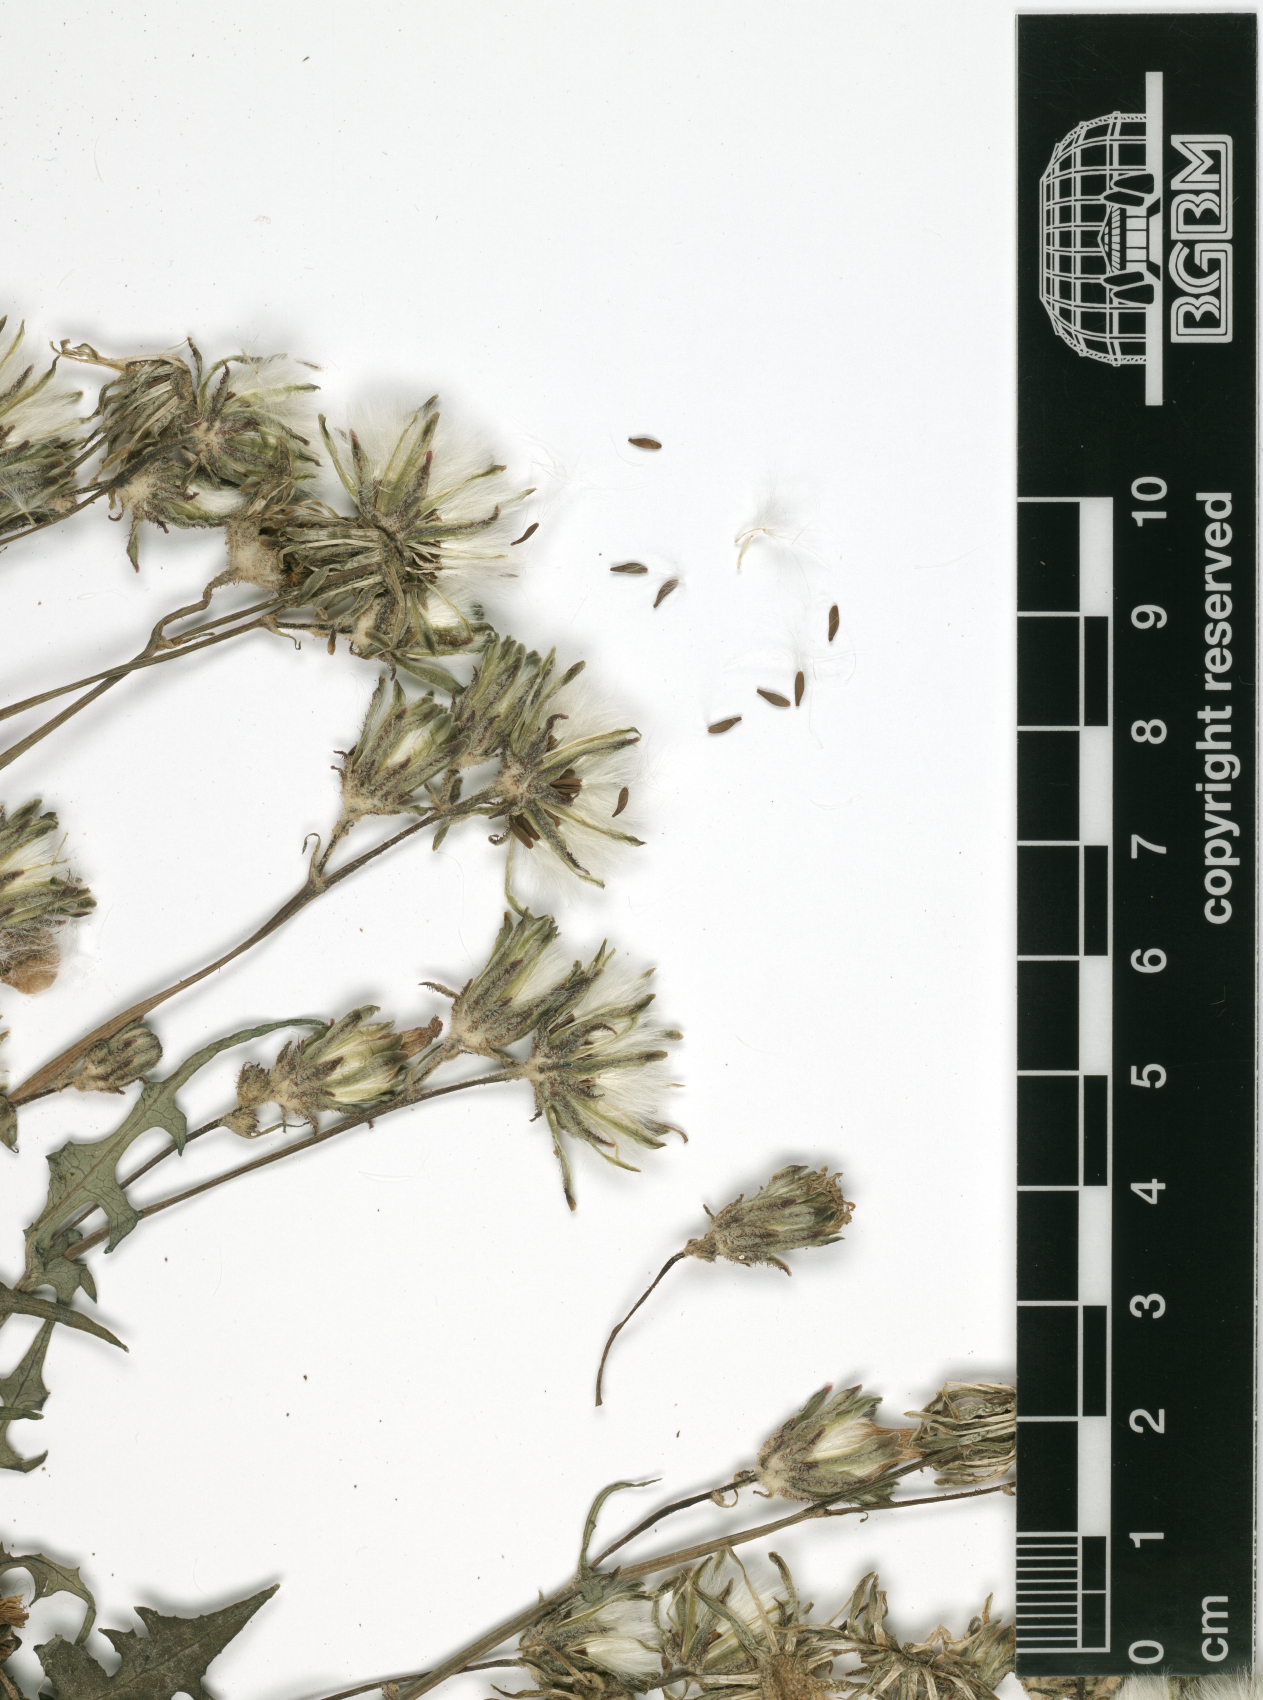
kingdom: Plantae
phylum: Tracheophyta
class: Magnoliopsida
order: Asterales
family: Asteraceae
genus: Sonchus
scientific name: Sonchus saudensis
